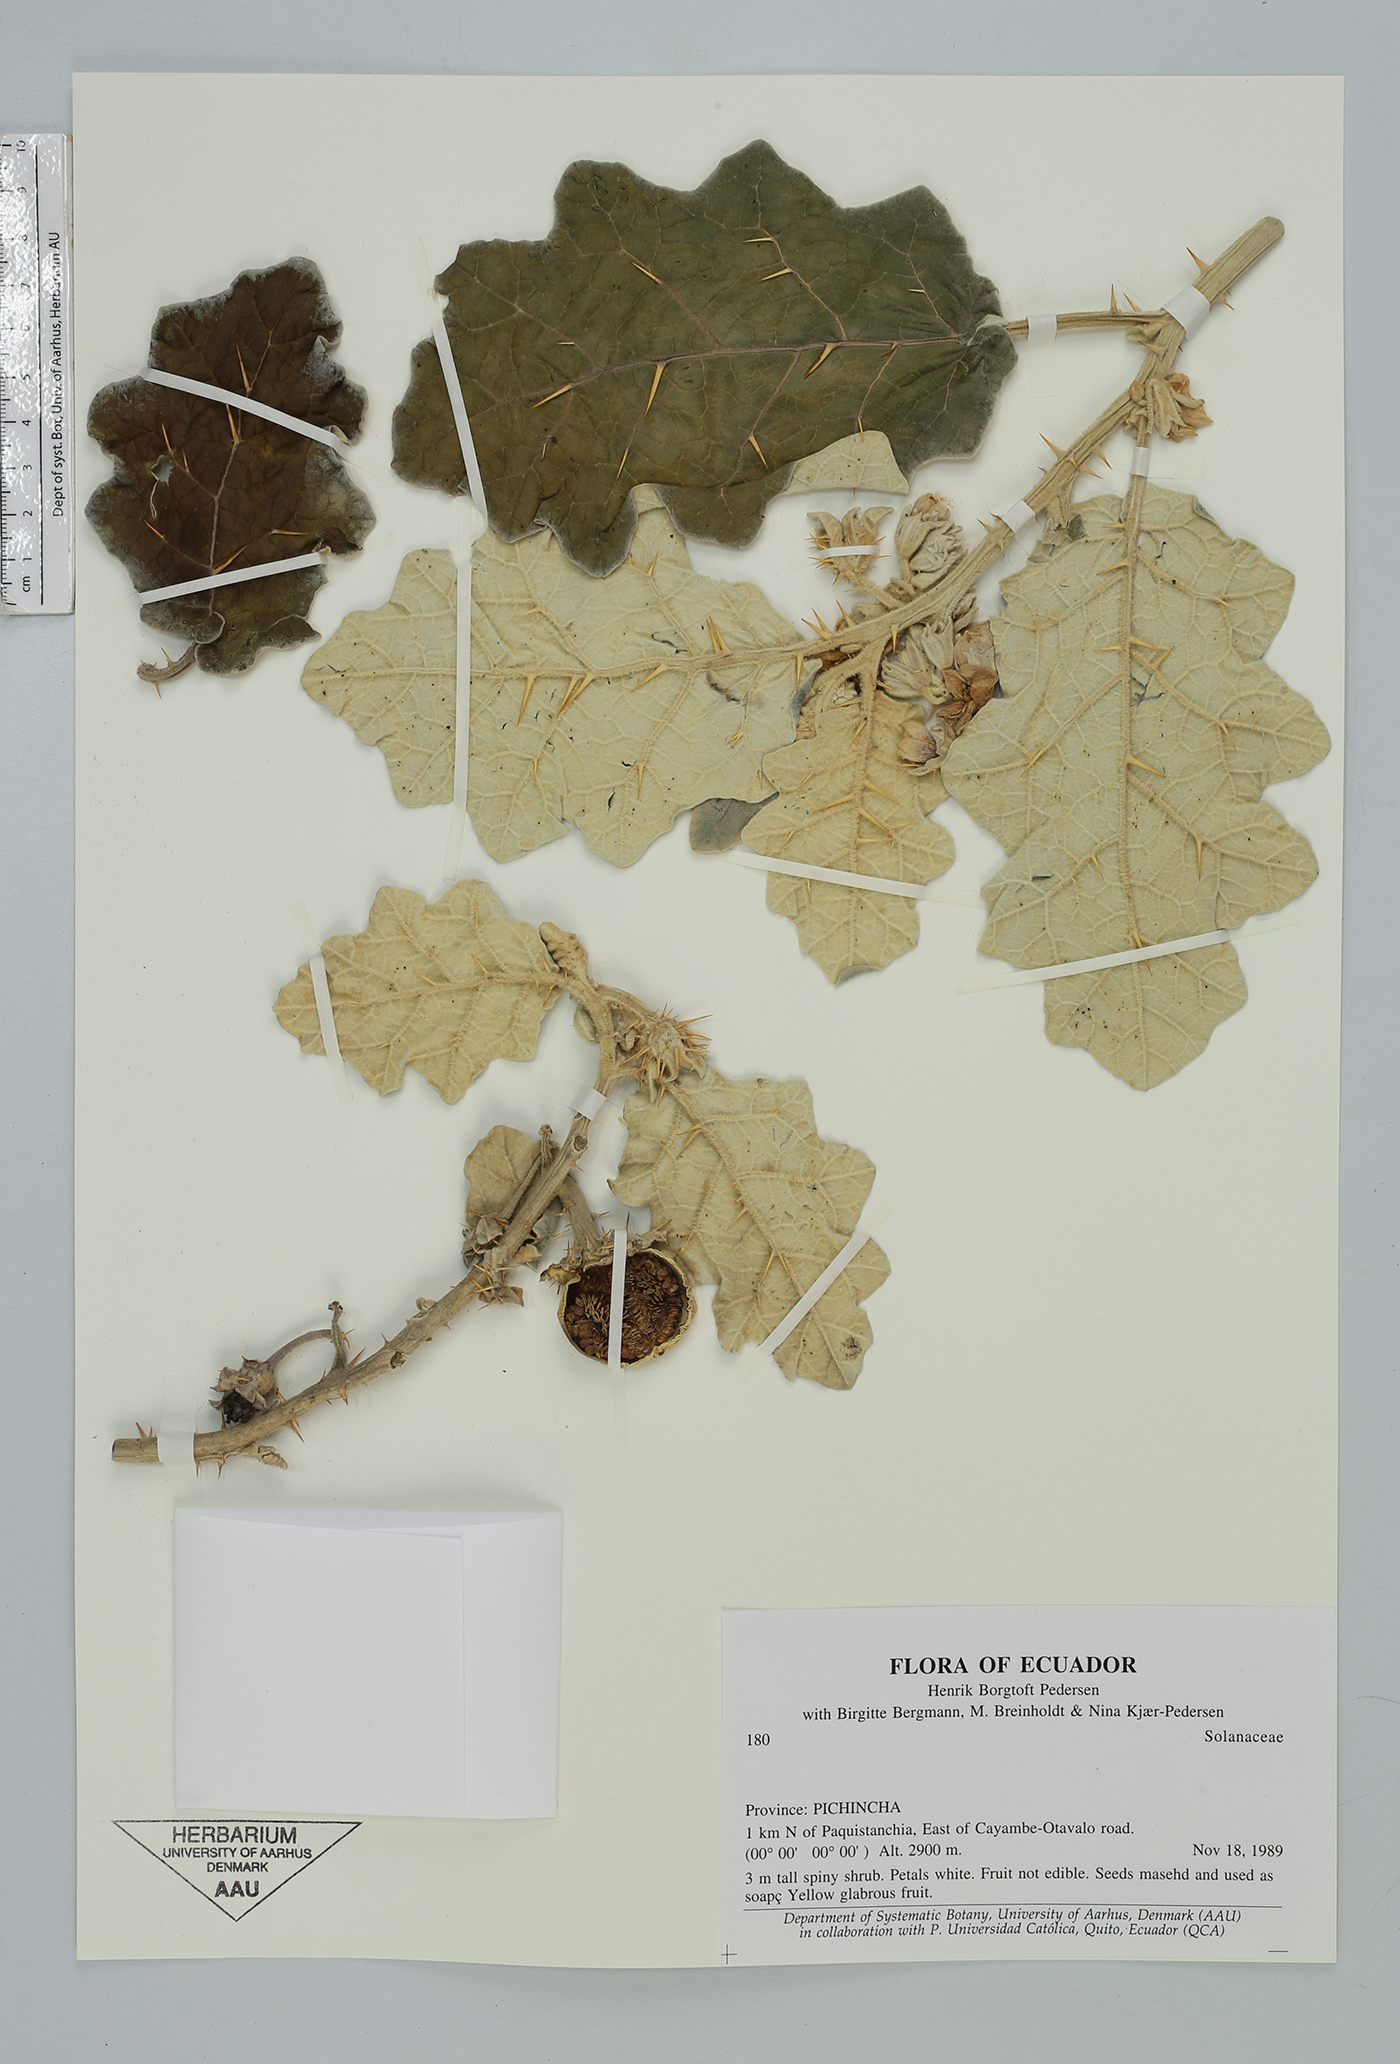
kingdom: Plantae
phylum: Tracheophyta
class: Magnoliopsida
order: Solanales
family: Solanaceae
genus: Solanum
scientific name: Solanum marginatum
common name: Purple african nightshade
